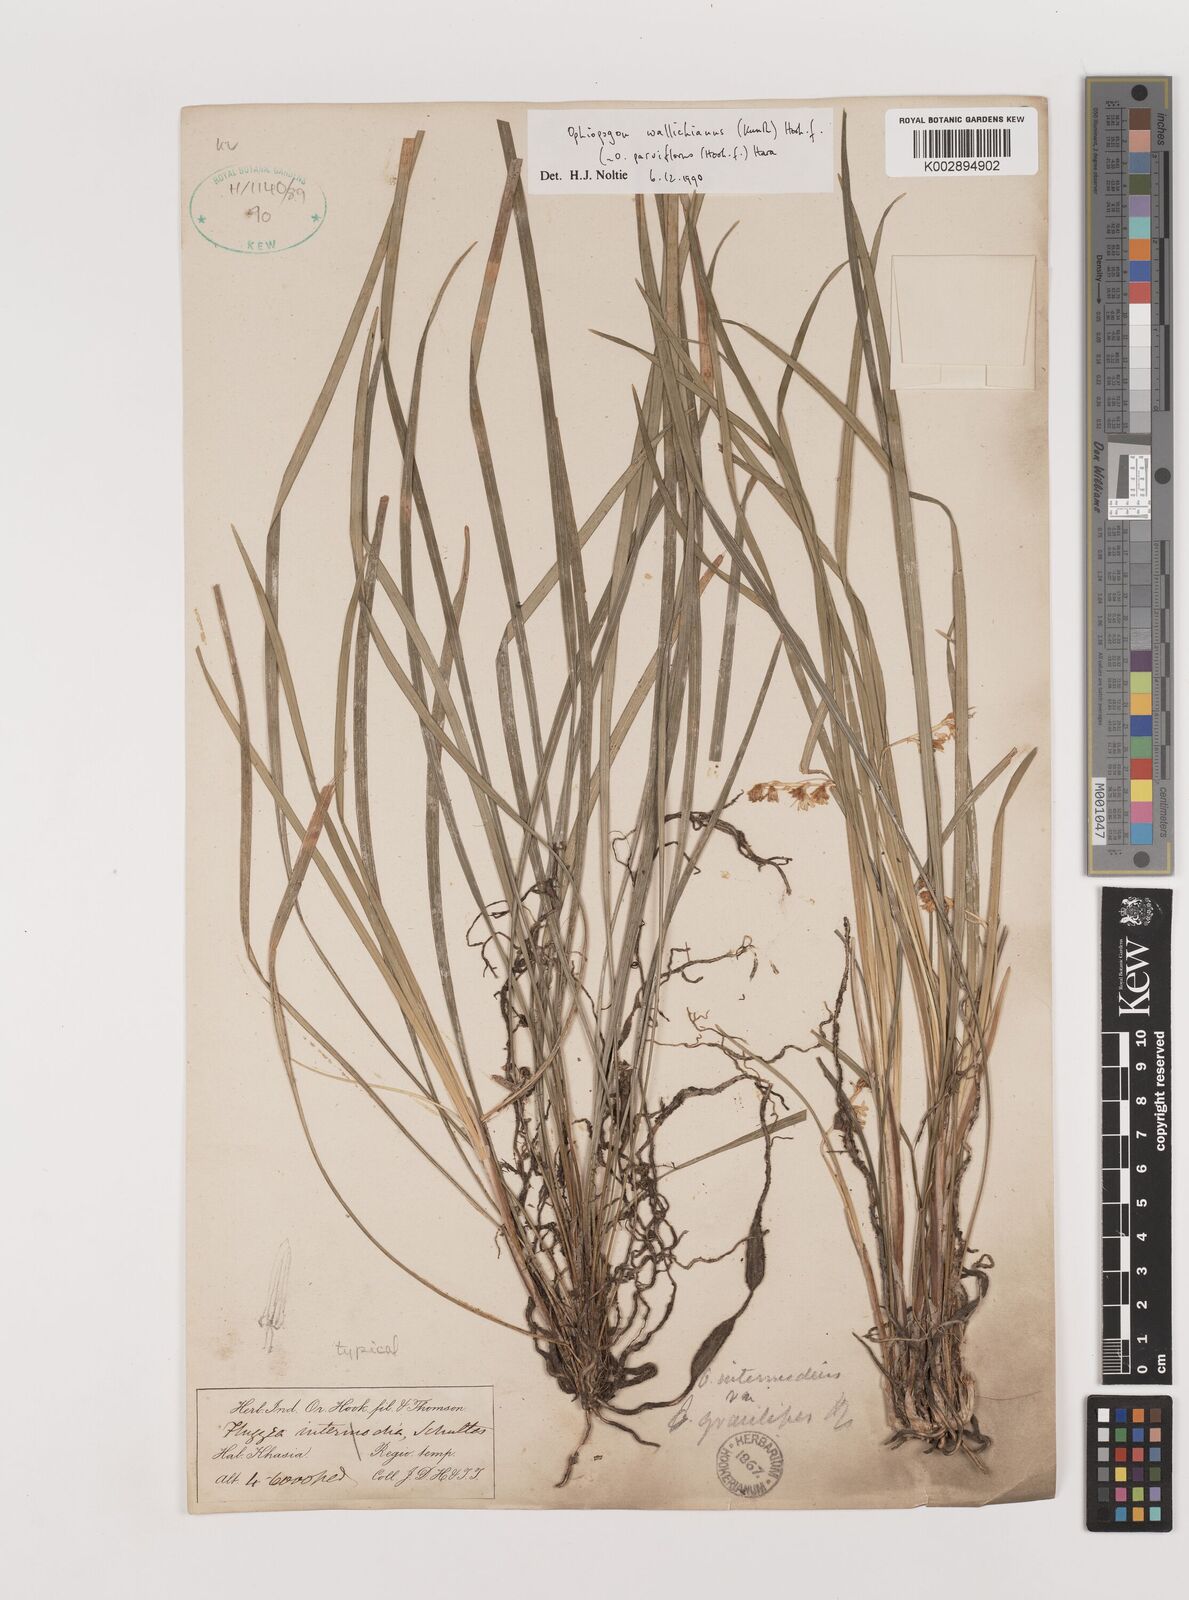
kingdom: Plantae
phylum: Tracheophyta
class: Liliopsida
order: Asparagales
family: Asparagaceae
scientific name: Asparagaceae
